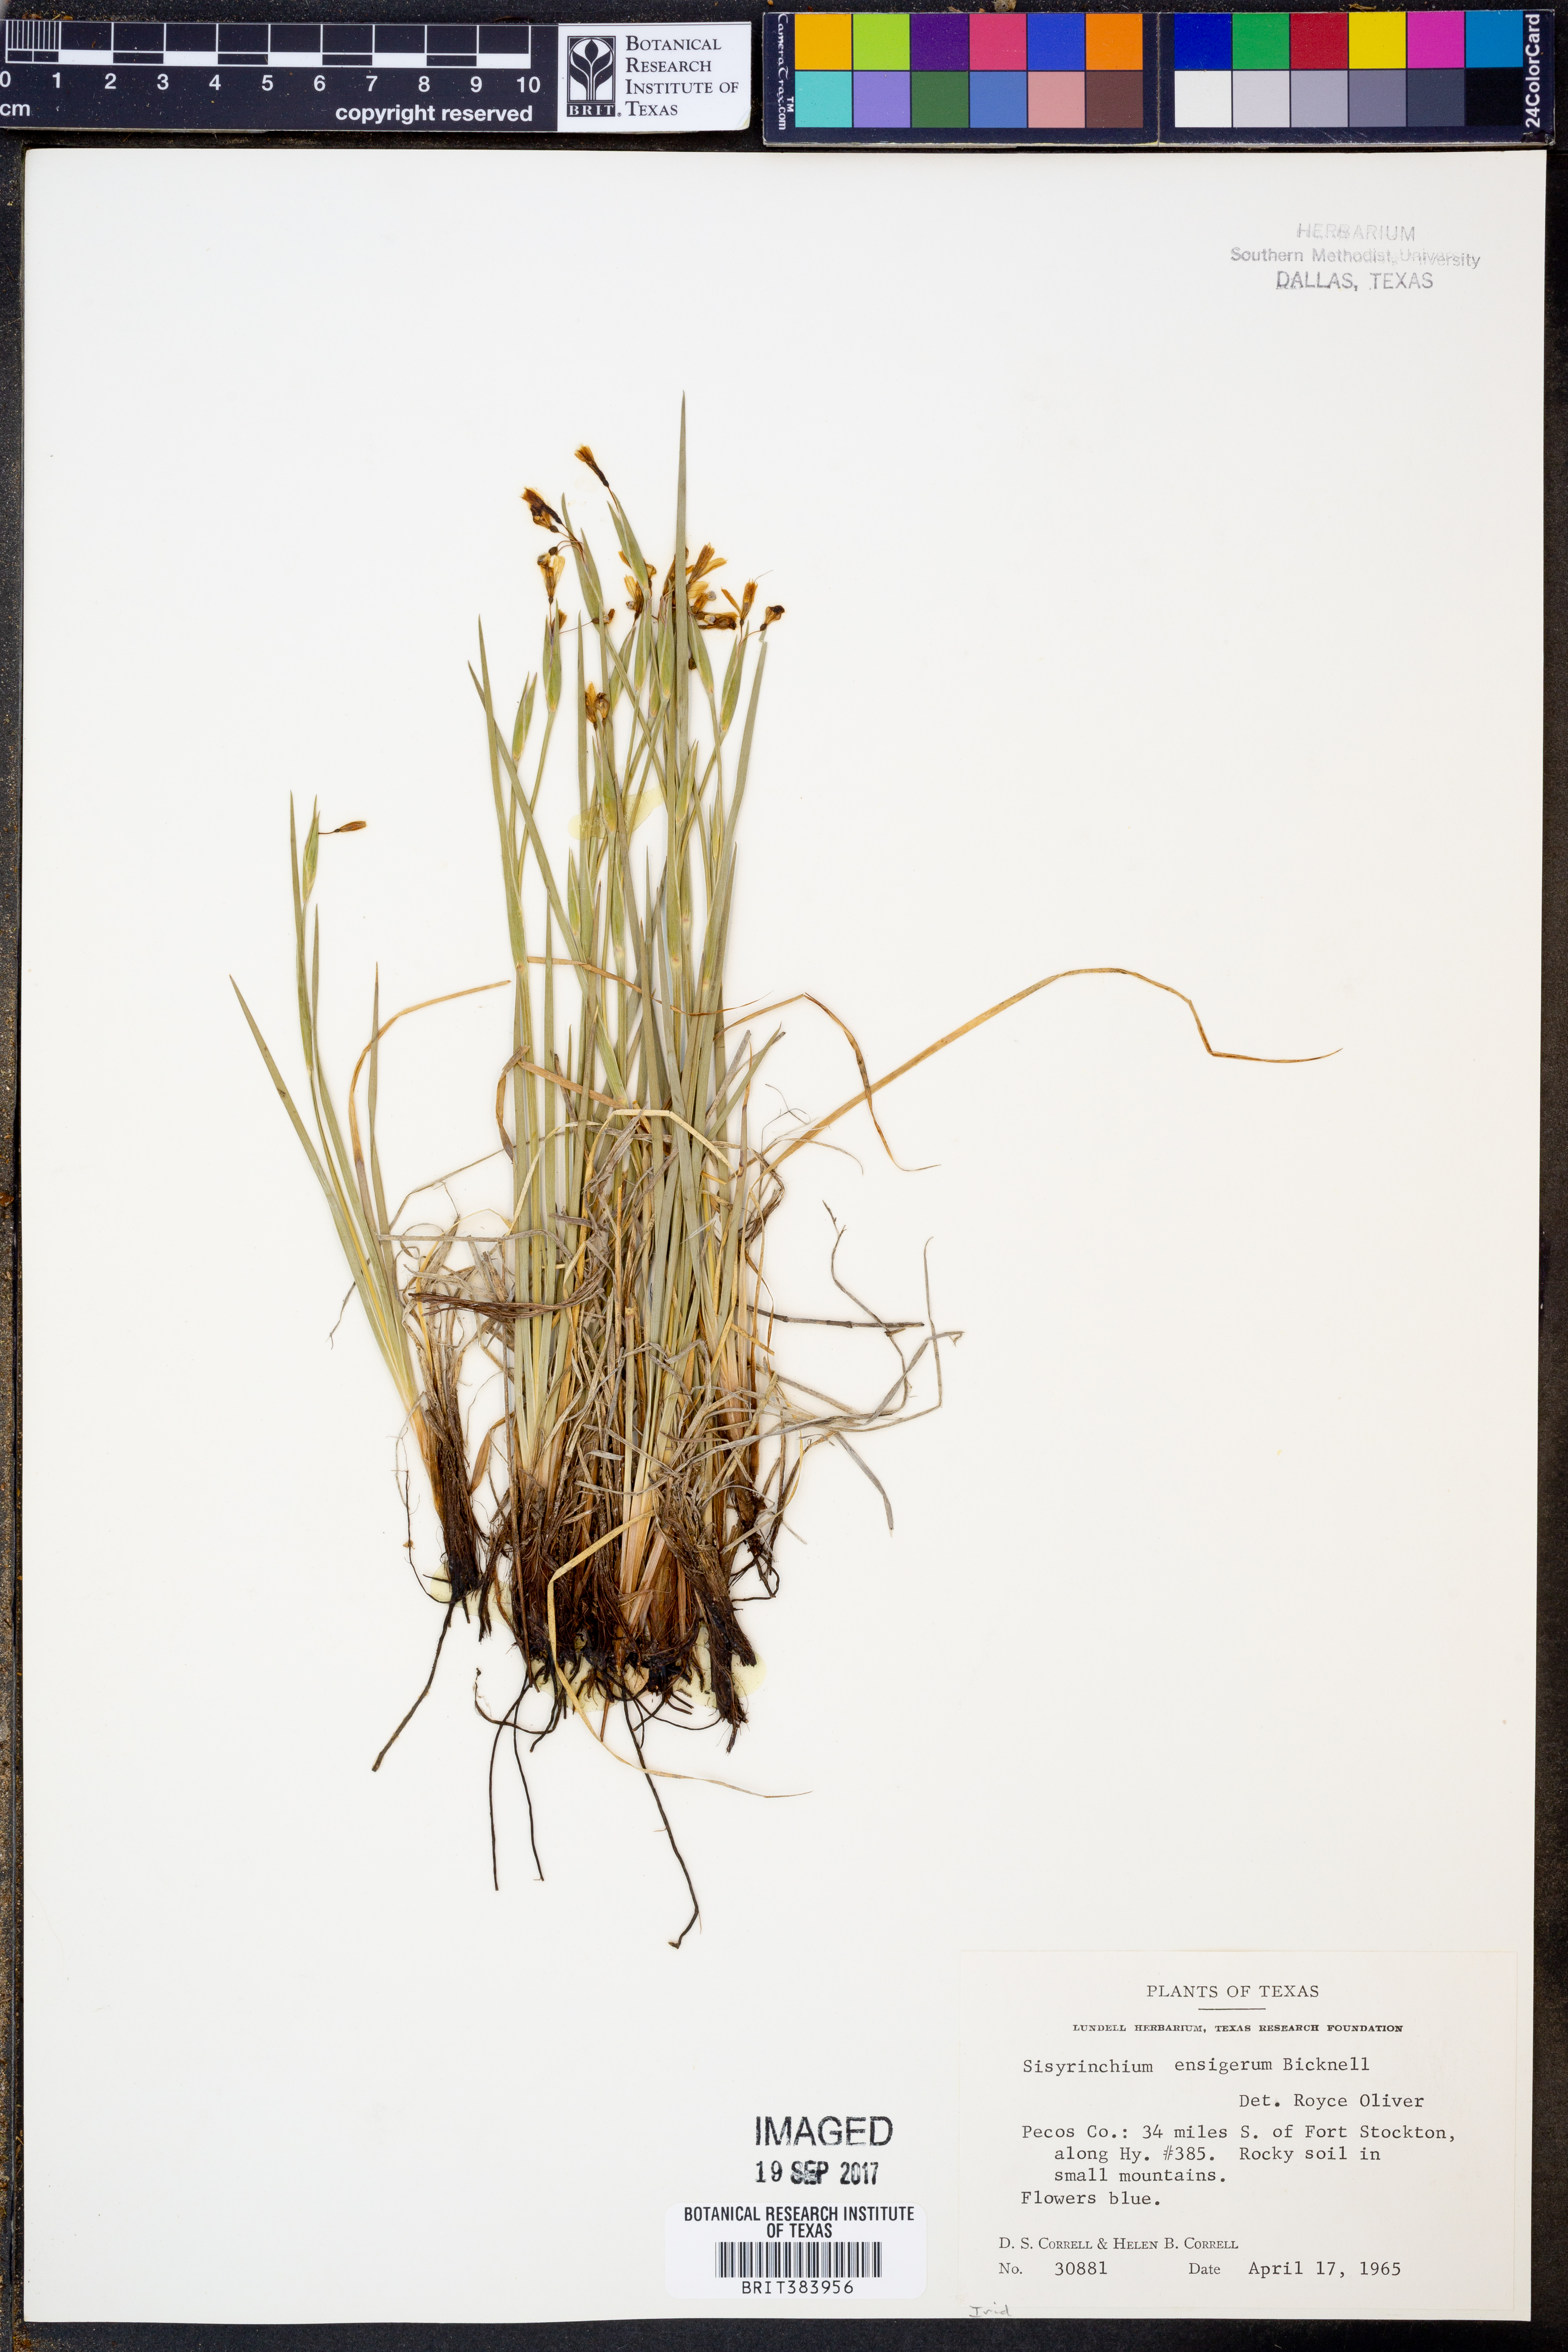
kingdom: Plantae
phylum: Tracheophyta
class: Liliopsida
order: Asparagales
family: Iridaceae
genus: Sisyrinchium
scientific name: Sisyrinchium ensigerum
